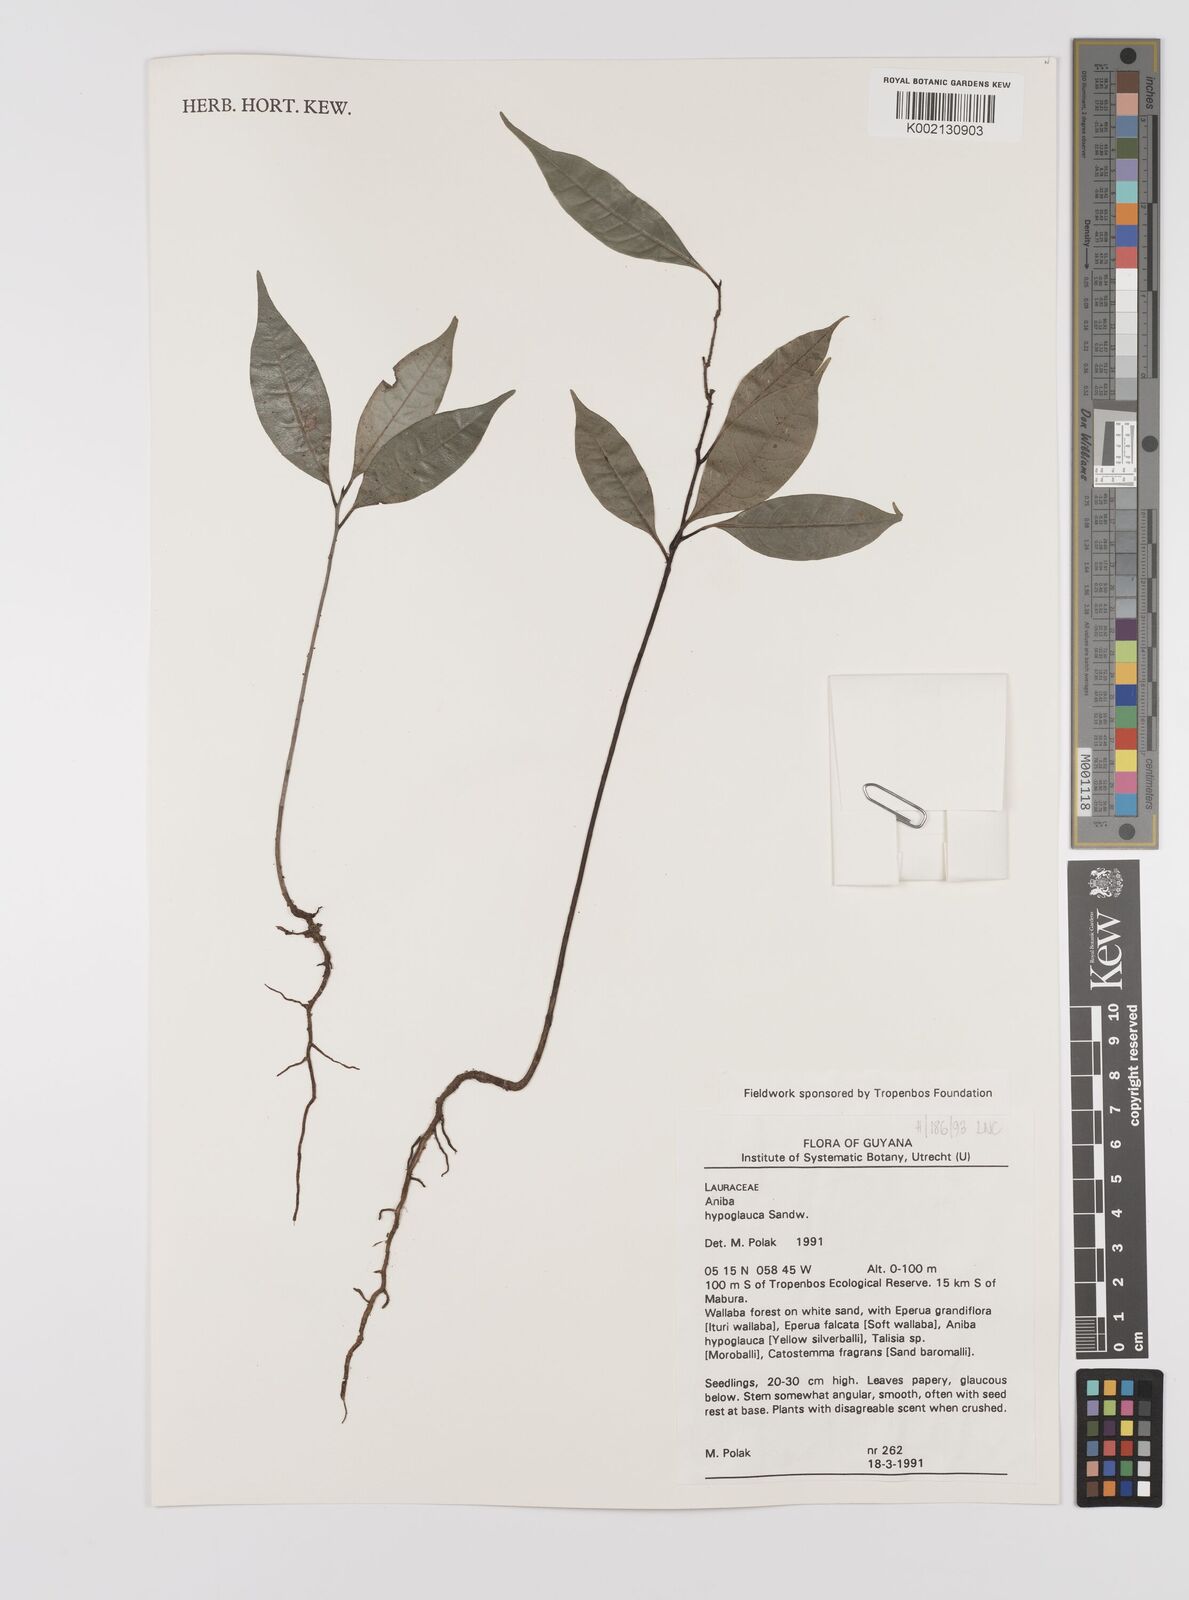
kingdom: Plantae
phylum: Tracheophyta
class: Magnoliopsida
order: Laurales
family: Lauraceae
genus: Aniba
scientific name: Aniba hypoglauca
